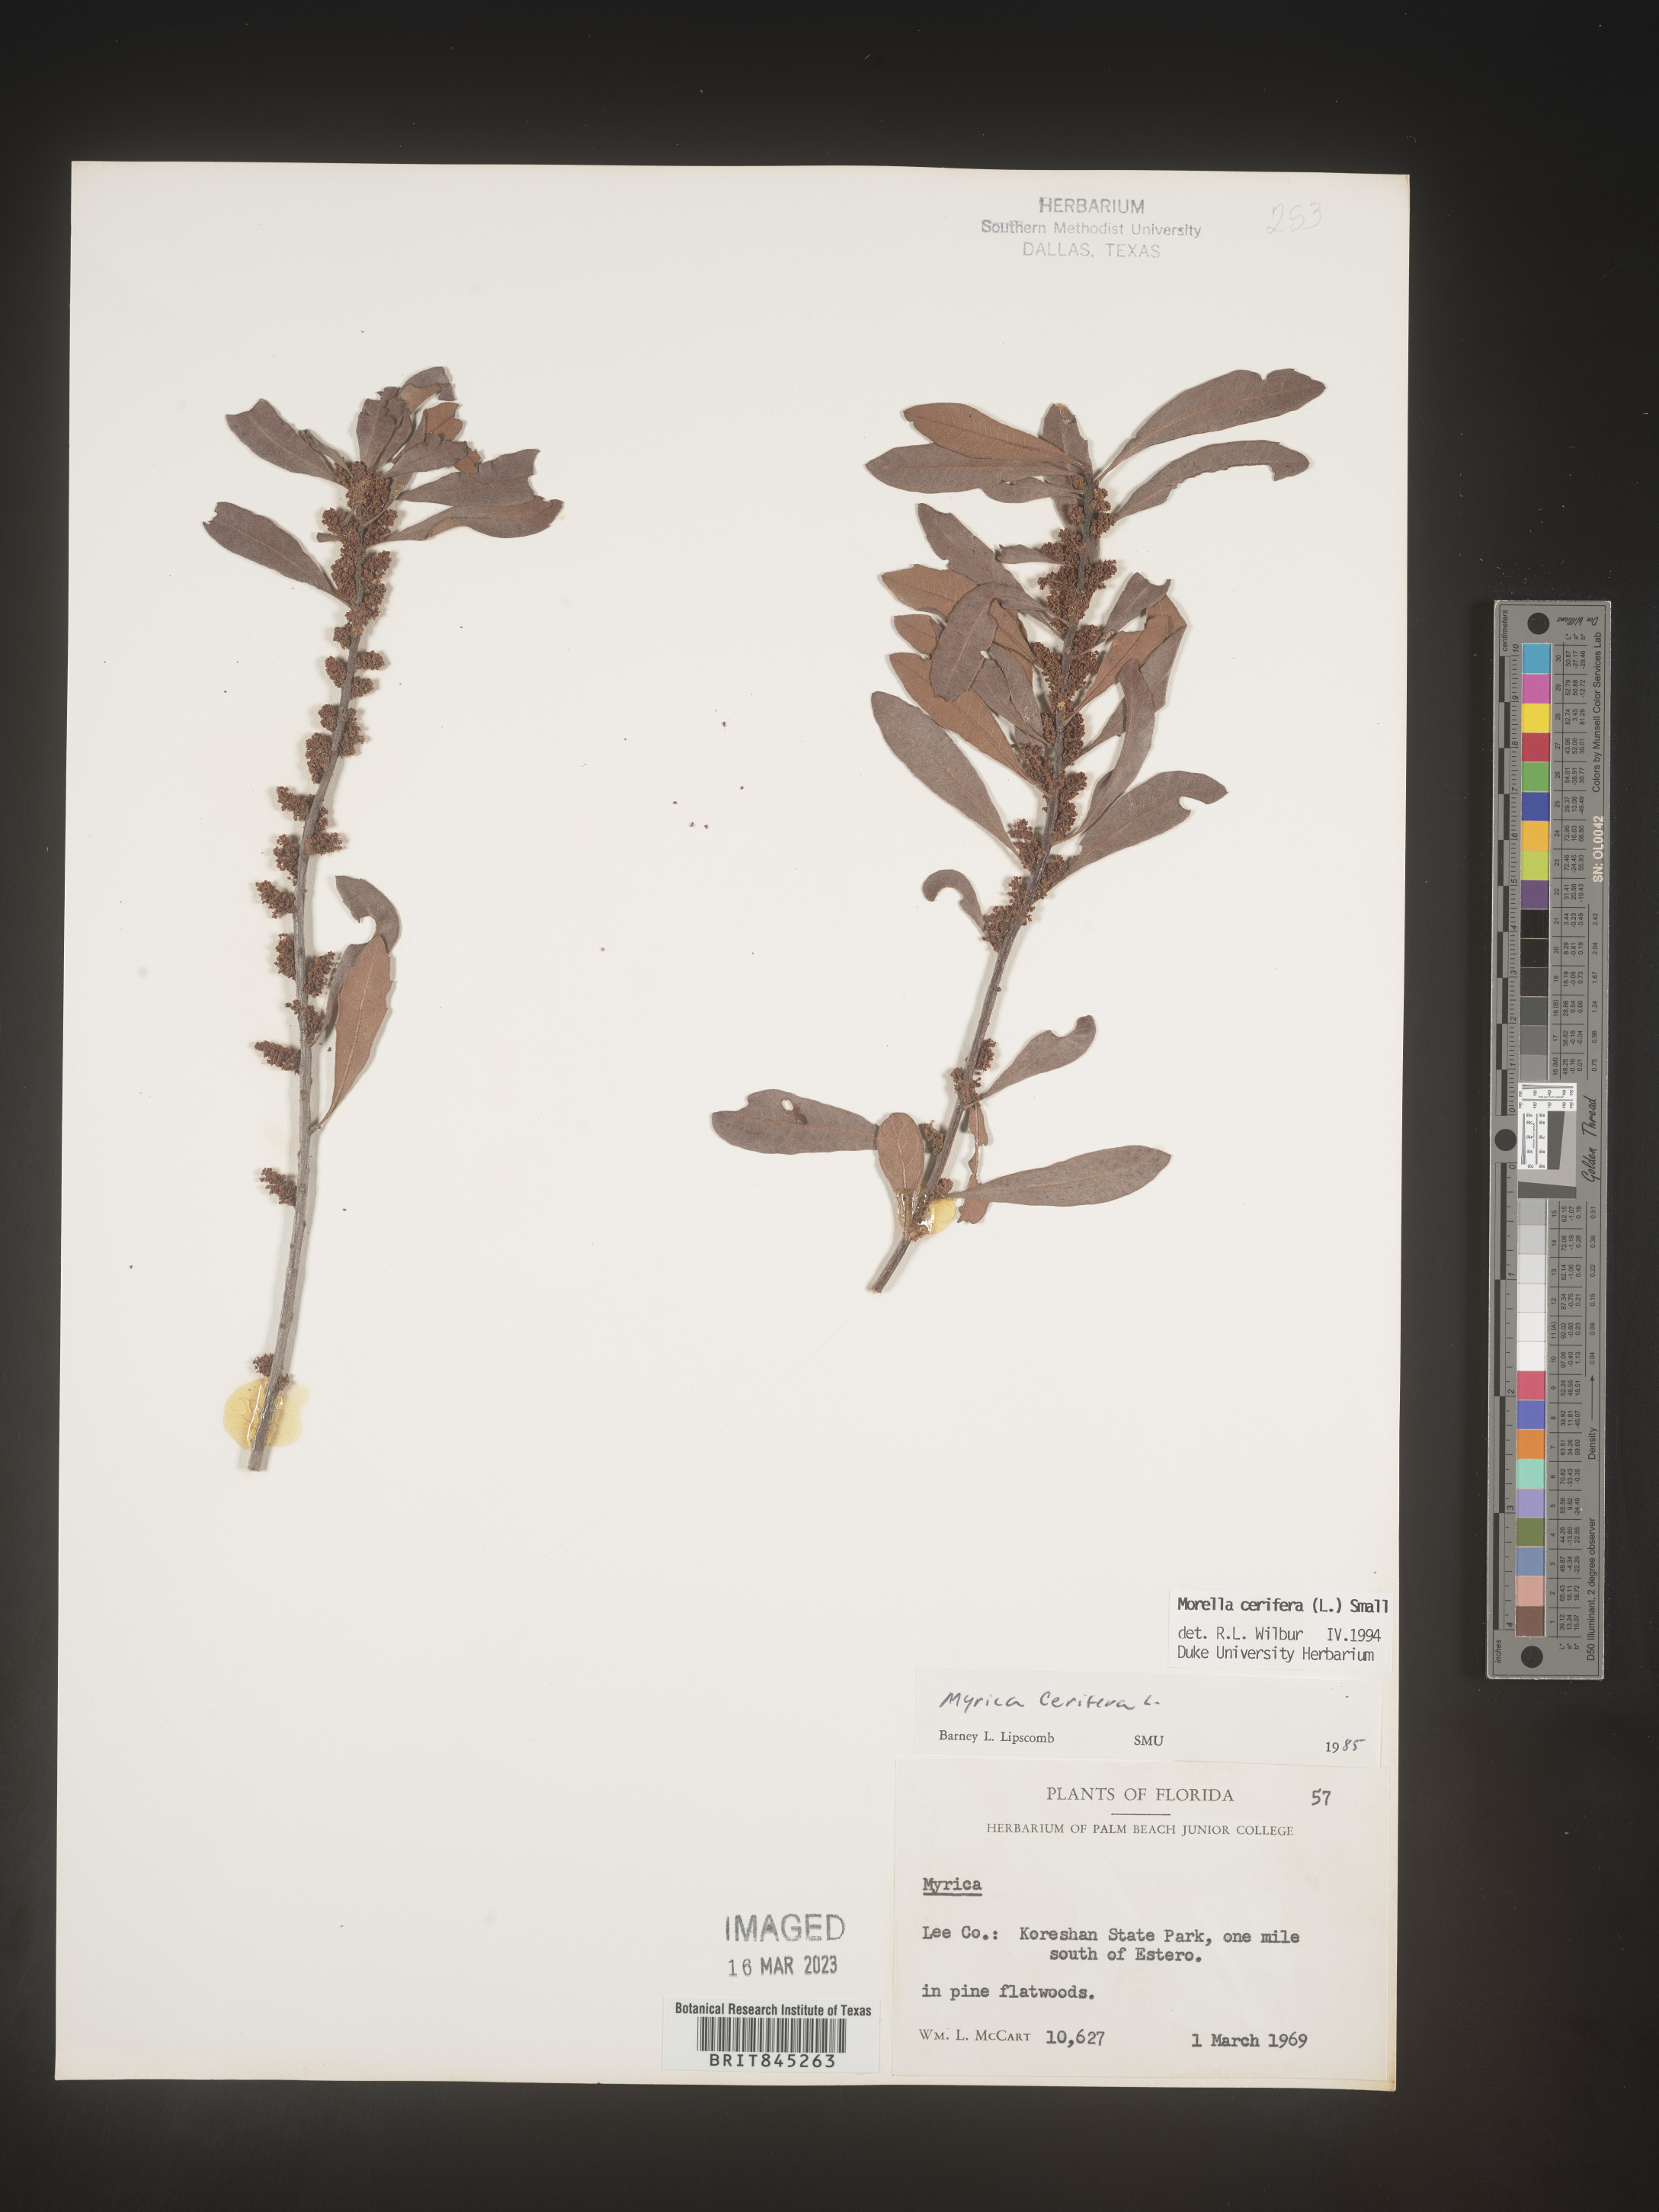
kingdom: Plantae
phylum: Tracheophyta
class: Magnoliopsida
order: Fagales
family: Myricaceae
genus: Morella
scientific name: Morella cerifera
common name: Wax myrtle
